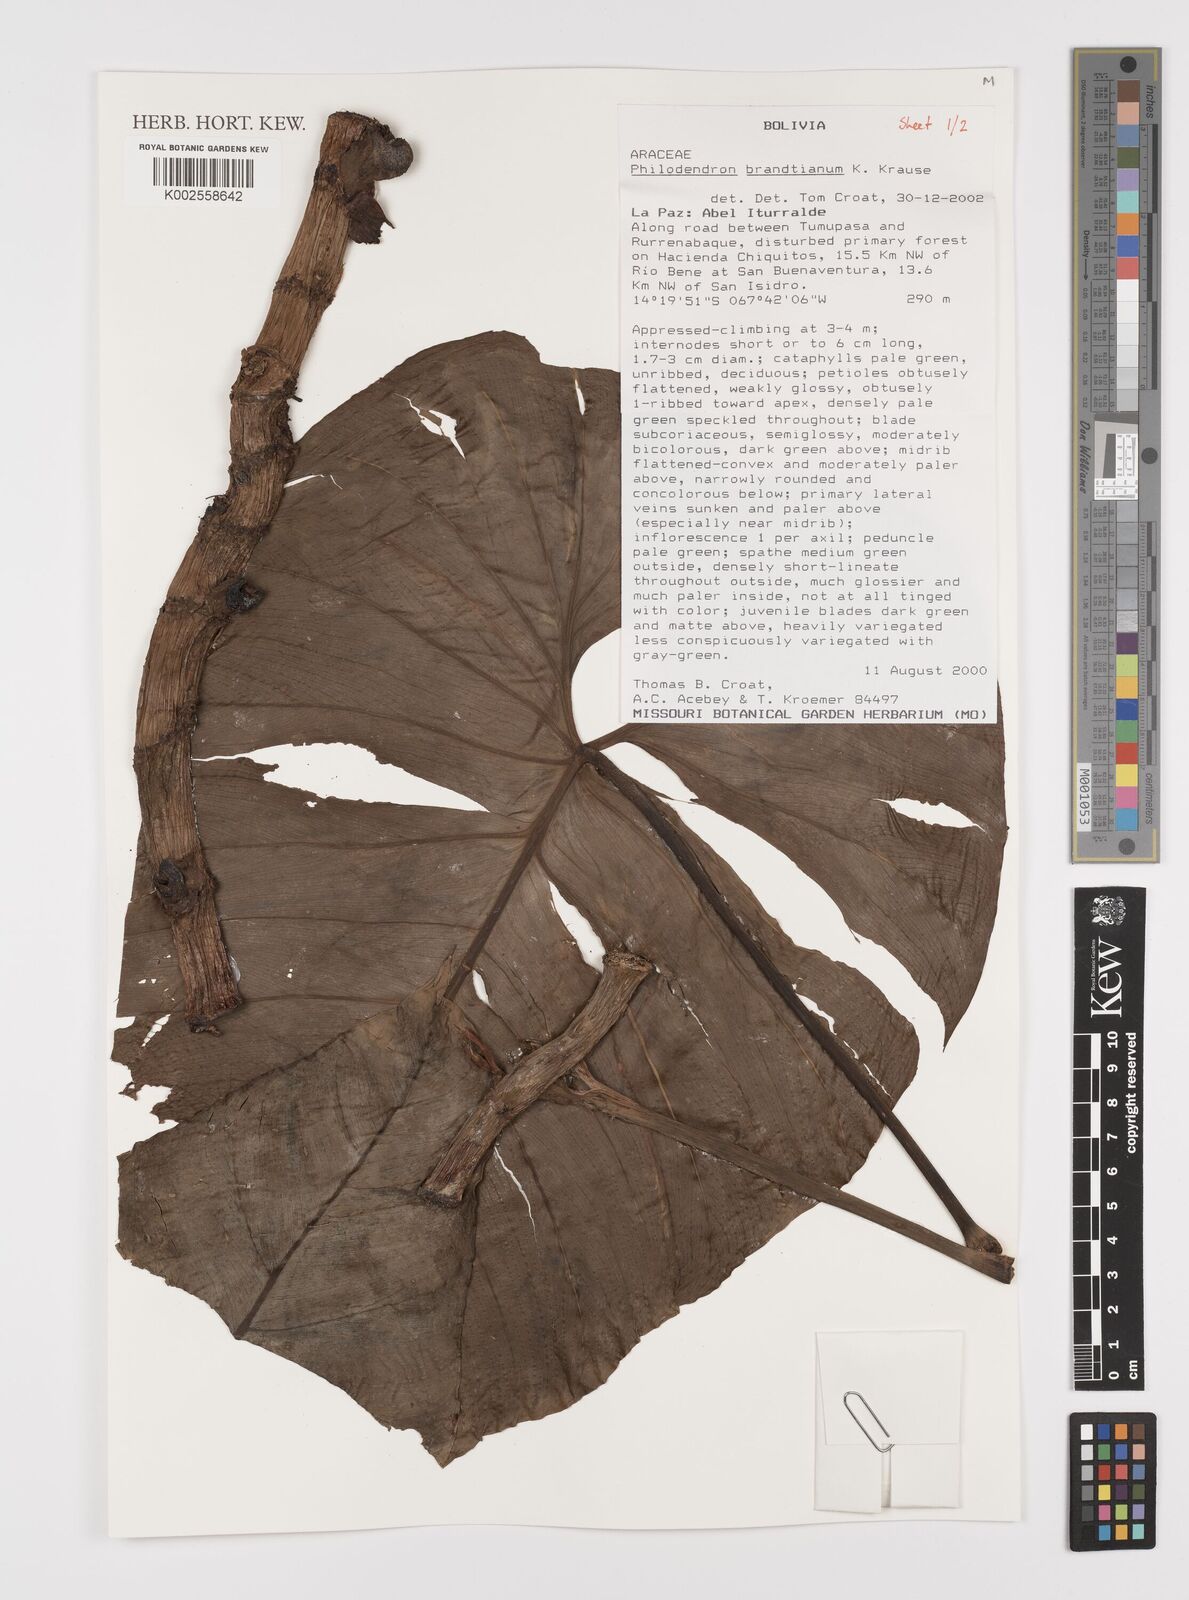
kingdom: Plantae
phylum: Tracheophyta
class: Liliopsida
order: Alismatales
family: Araceae
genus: Philodendron
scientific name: Philodendron brandtianum
